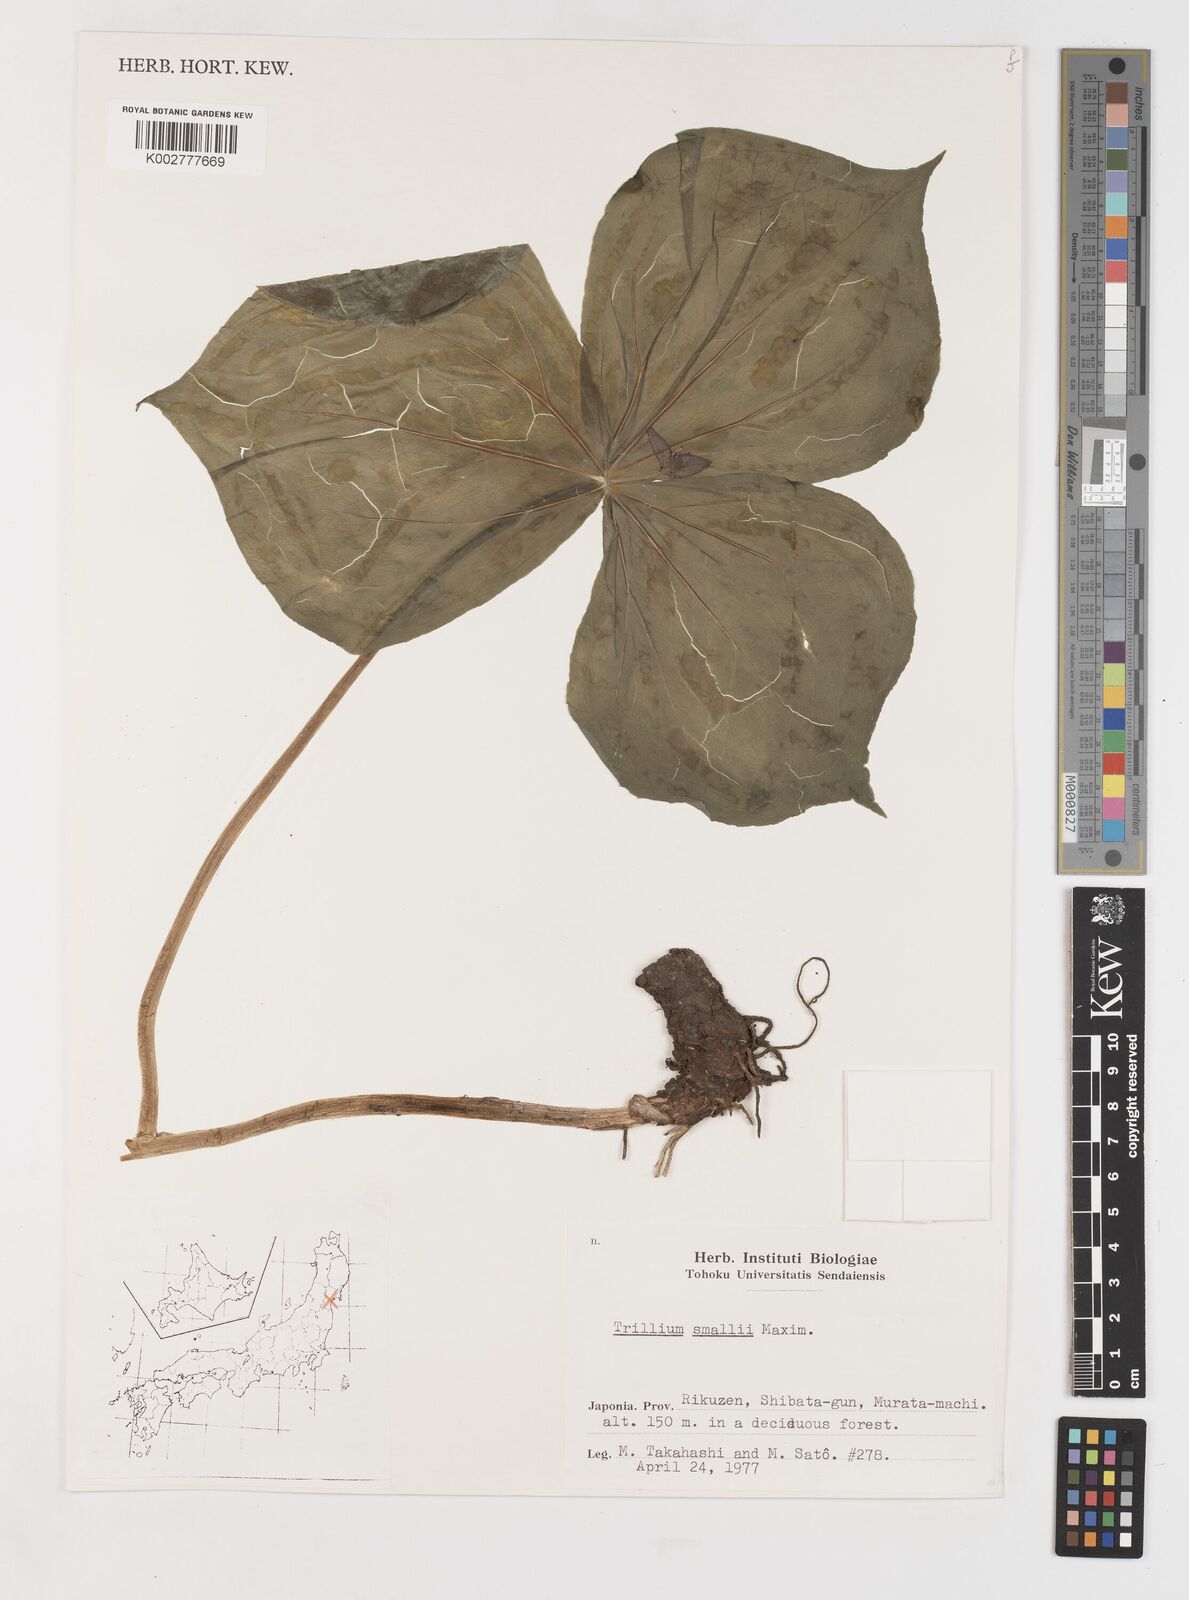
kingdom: Plantae
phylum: Tracheophyta
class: Liliopsida
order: Liliales
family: Melanthiaceae
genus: Trillium
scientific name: Trillium smallii
